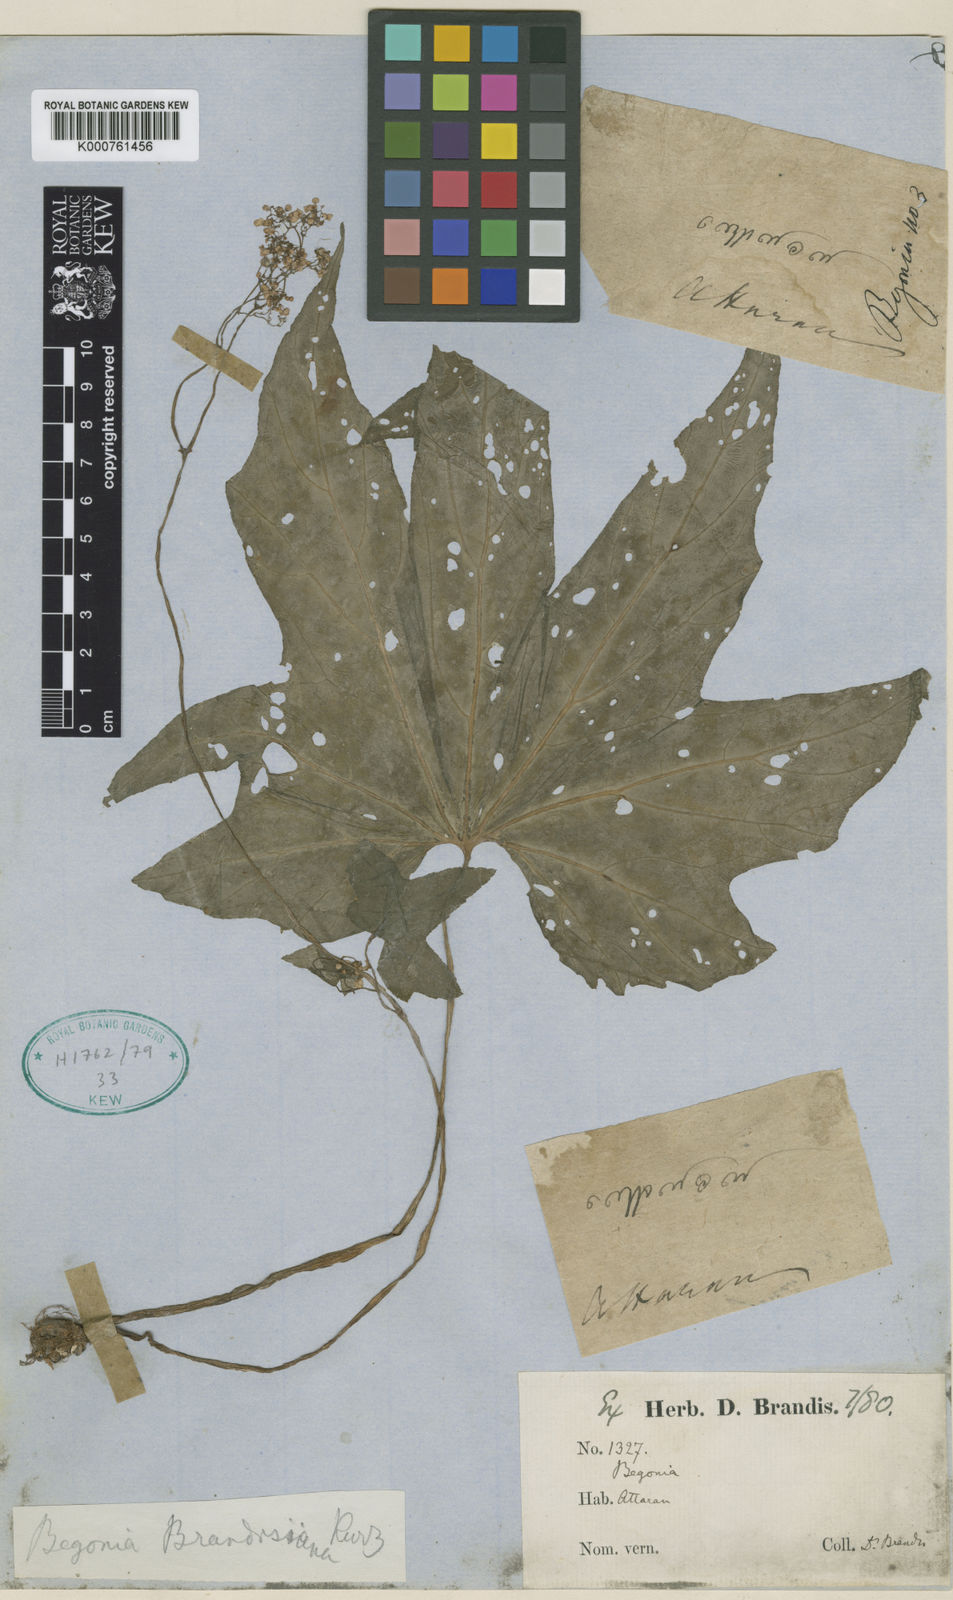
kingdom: Plantae
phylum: Tracheophyta
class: Magnoliopsida
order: Cucurbitales
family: Begoniaceae
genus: Begonia
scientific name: Begonia brandisiana
